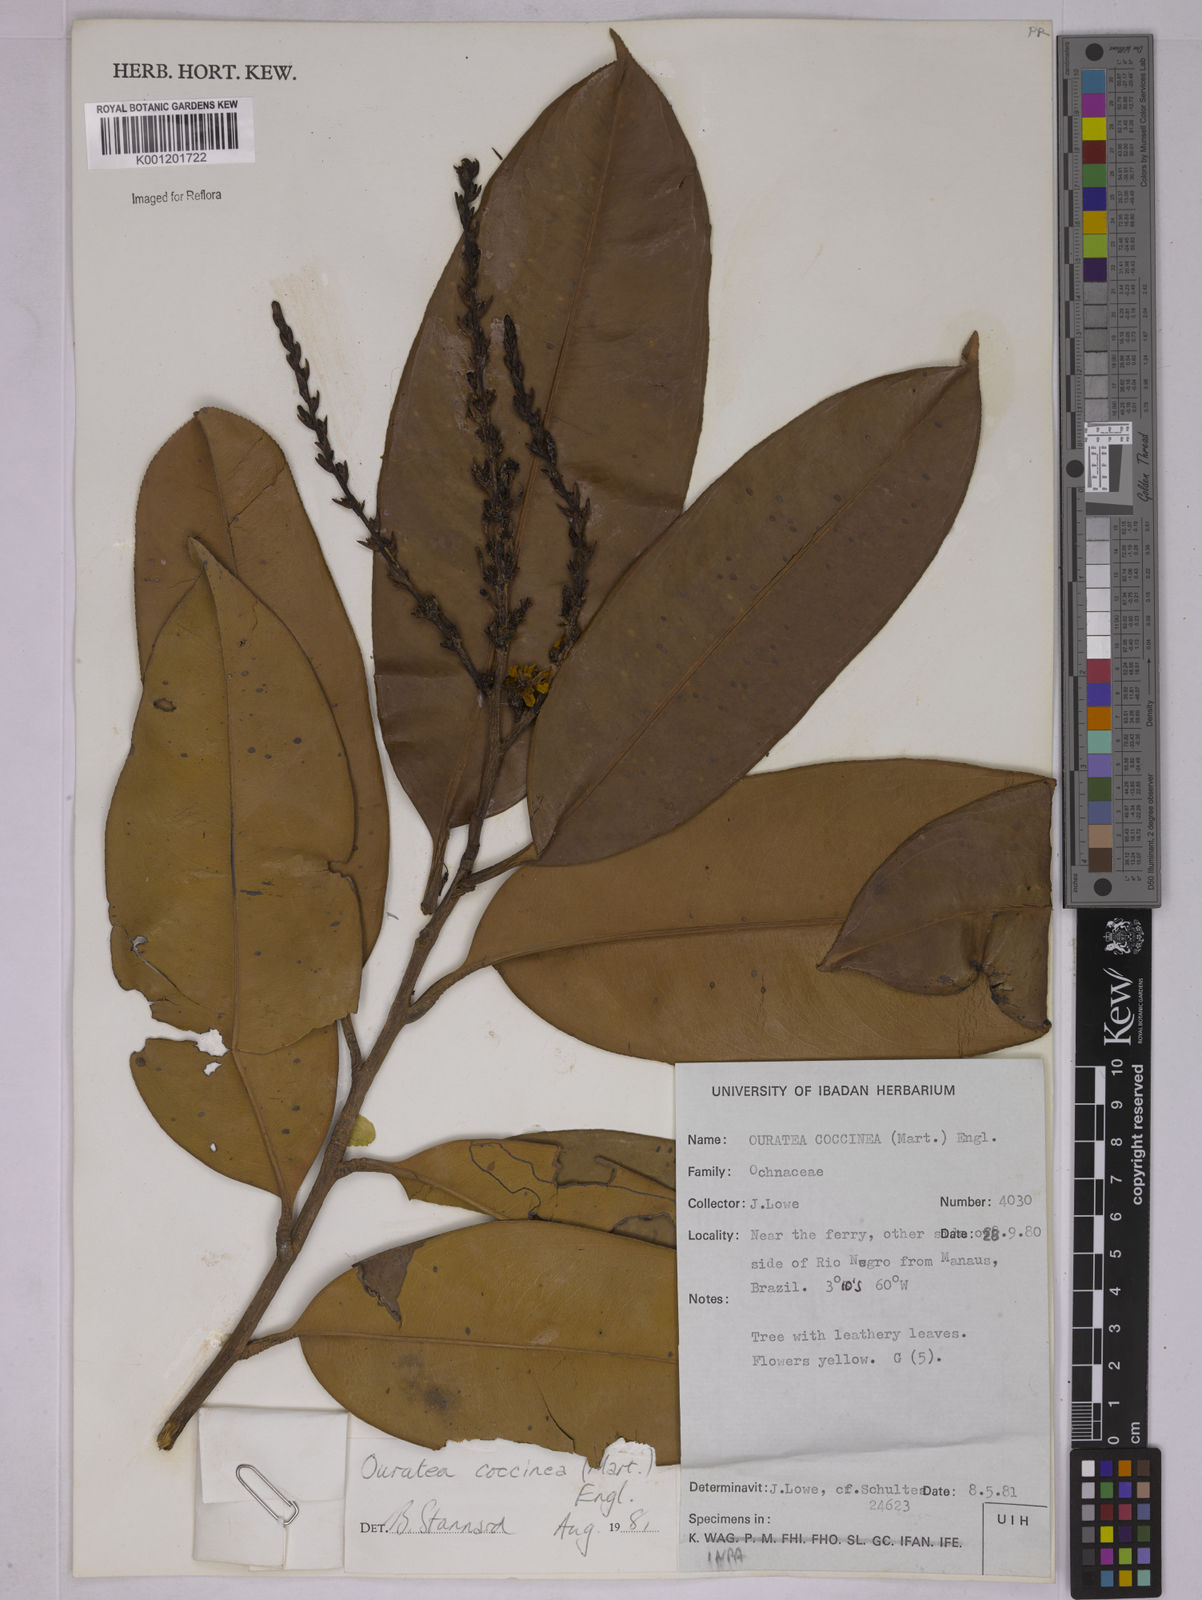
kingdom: Plantae
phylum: Tracheophyta
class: Magnoliopsida
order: Malpighiales
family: Ochnaceae
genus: Ouratea
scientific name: Ouratea coccinea
